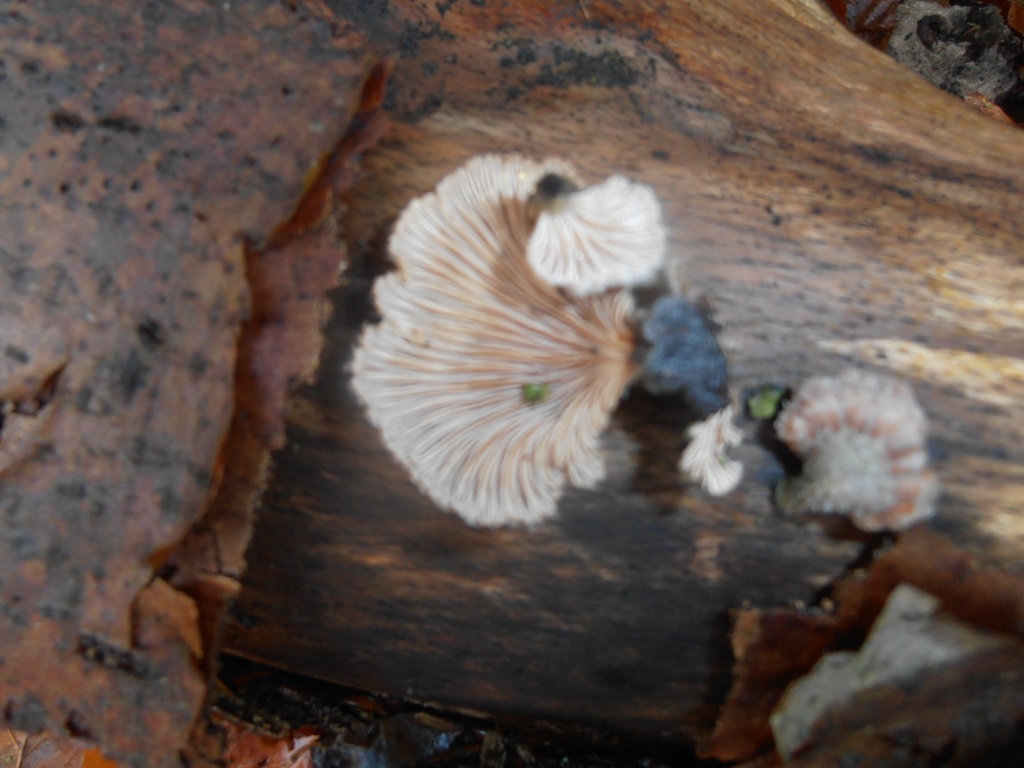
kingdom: Fungi
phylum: Basidiomycota
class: Agaricomycetes
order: Agaricales
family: Schizophyllaceae
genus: Schizophyllum
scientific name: Schizophyllum commune
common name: kløvblad
